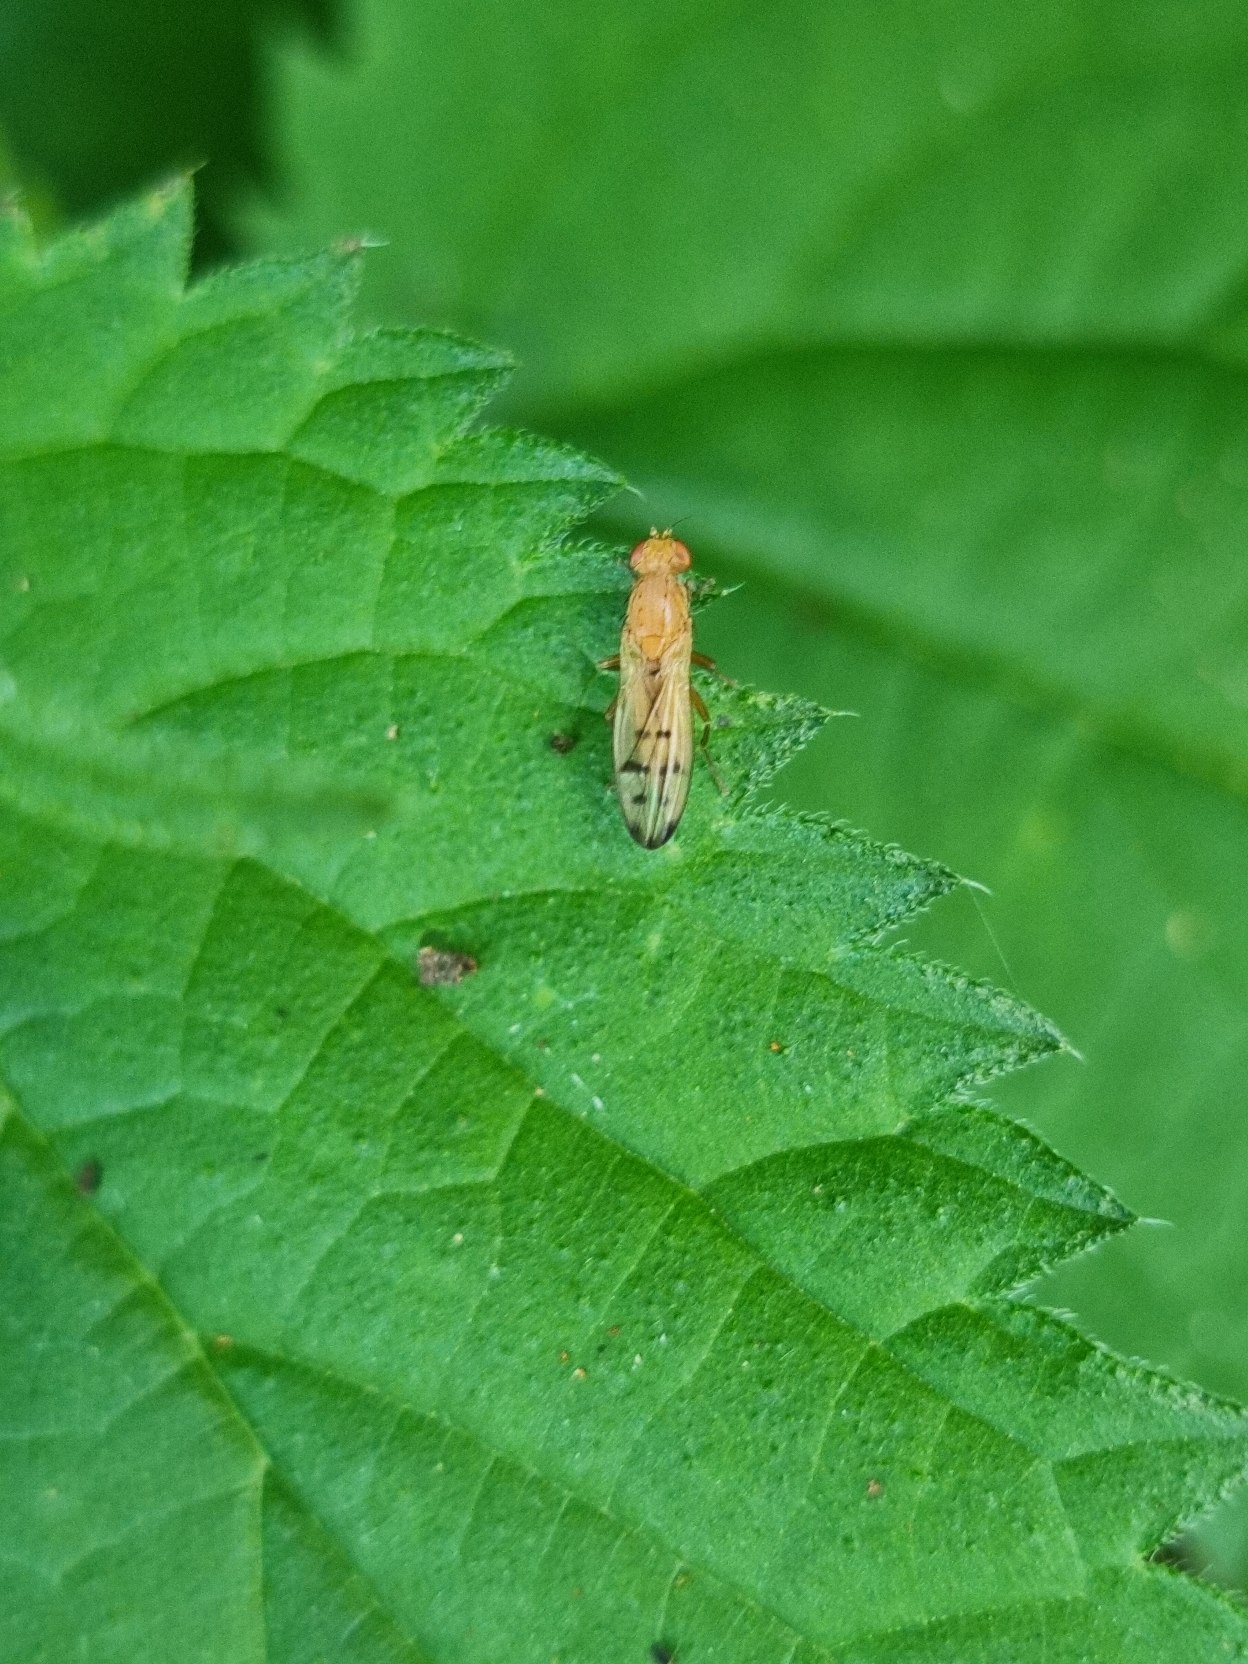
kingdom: Animalia
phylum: Arthropoda
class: Insecta
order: Diptera
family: Opomyzidae
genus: Opomyza
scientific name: Opomyza florum
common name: Gul græsflue
